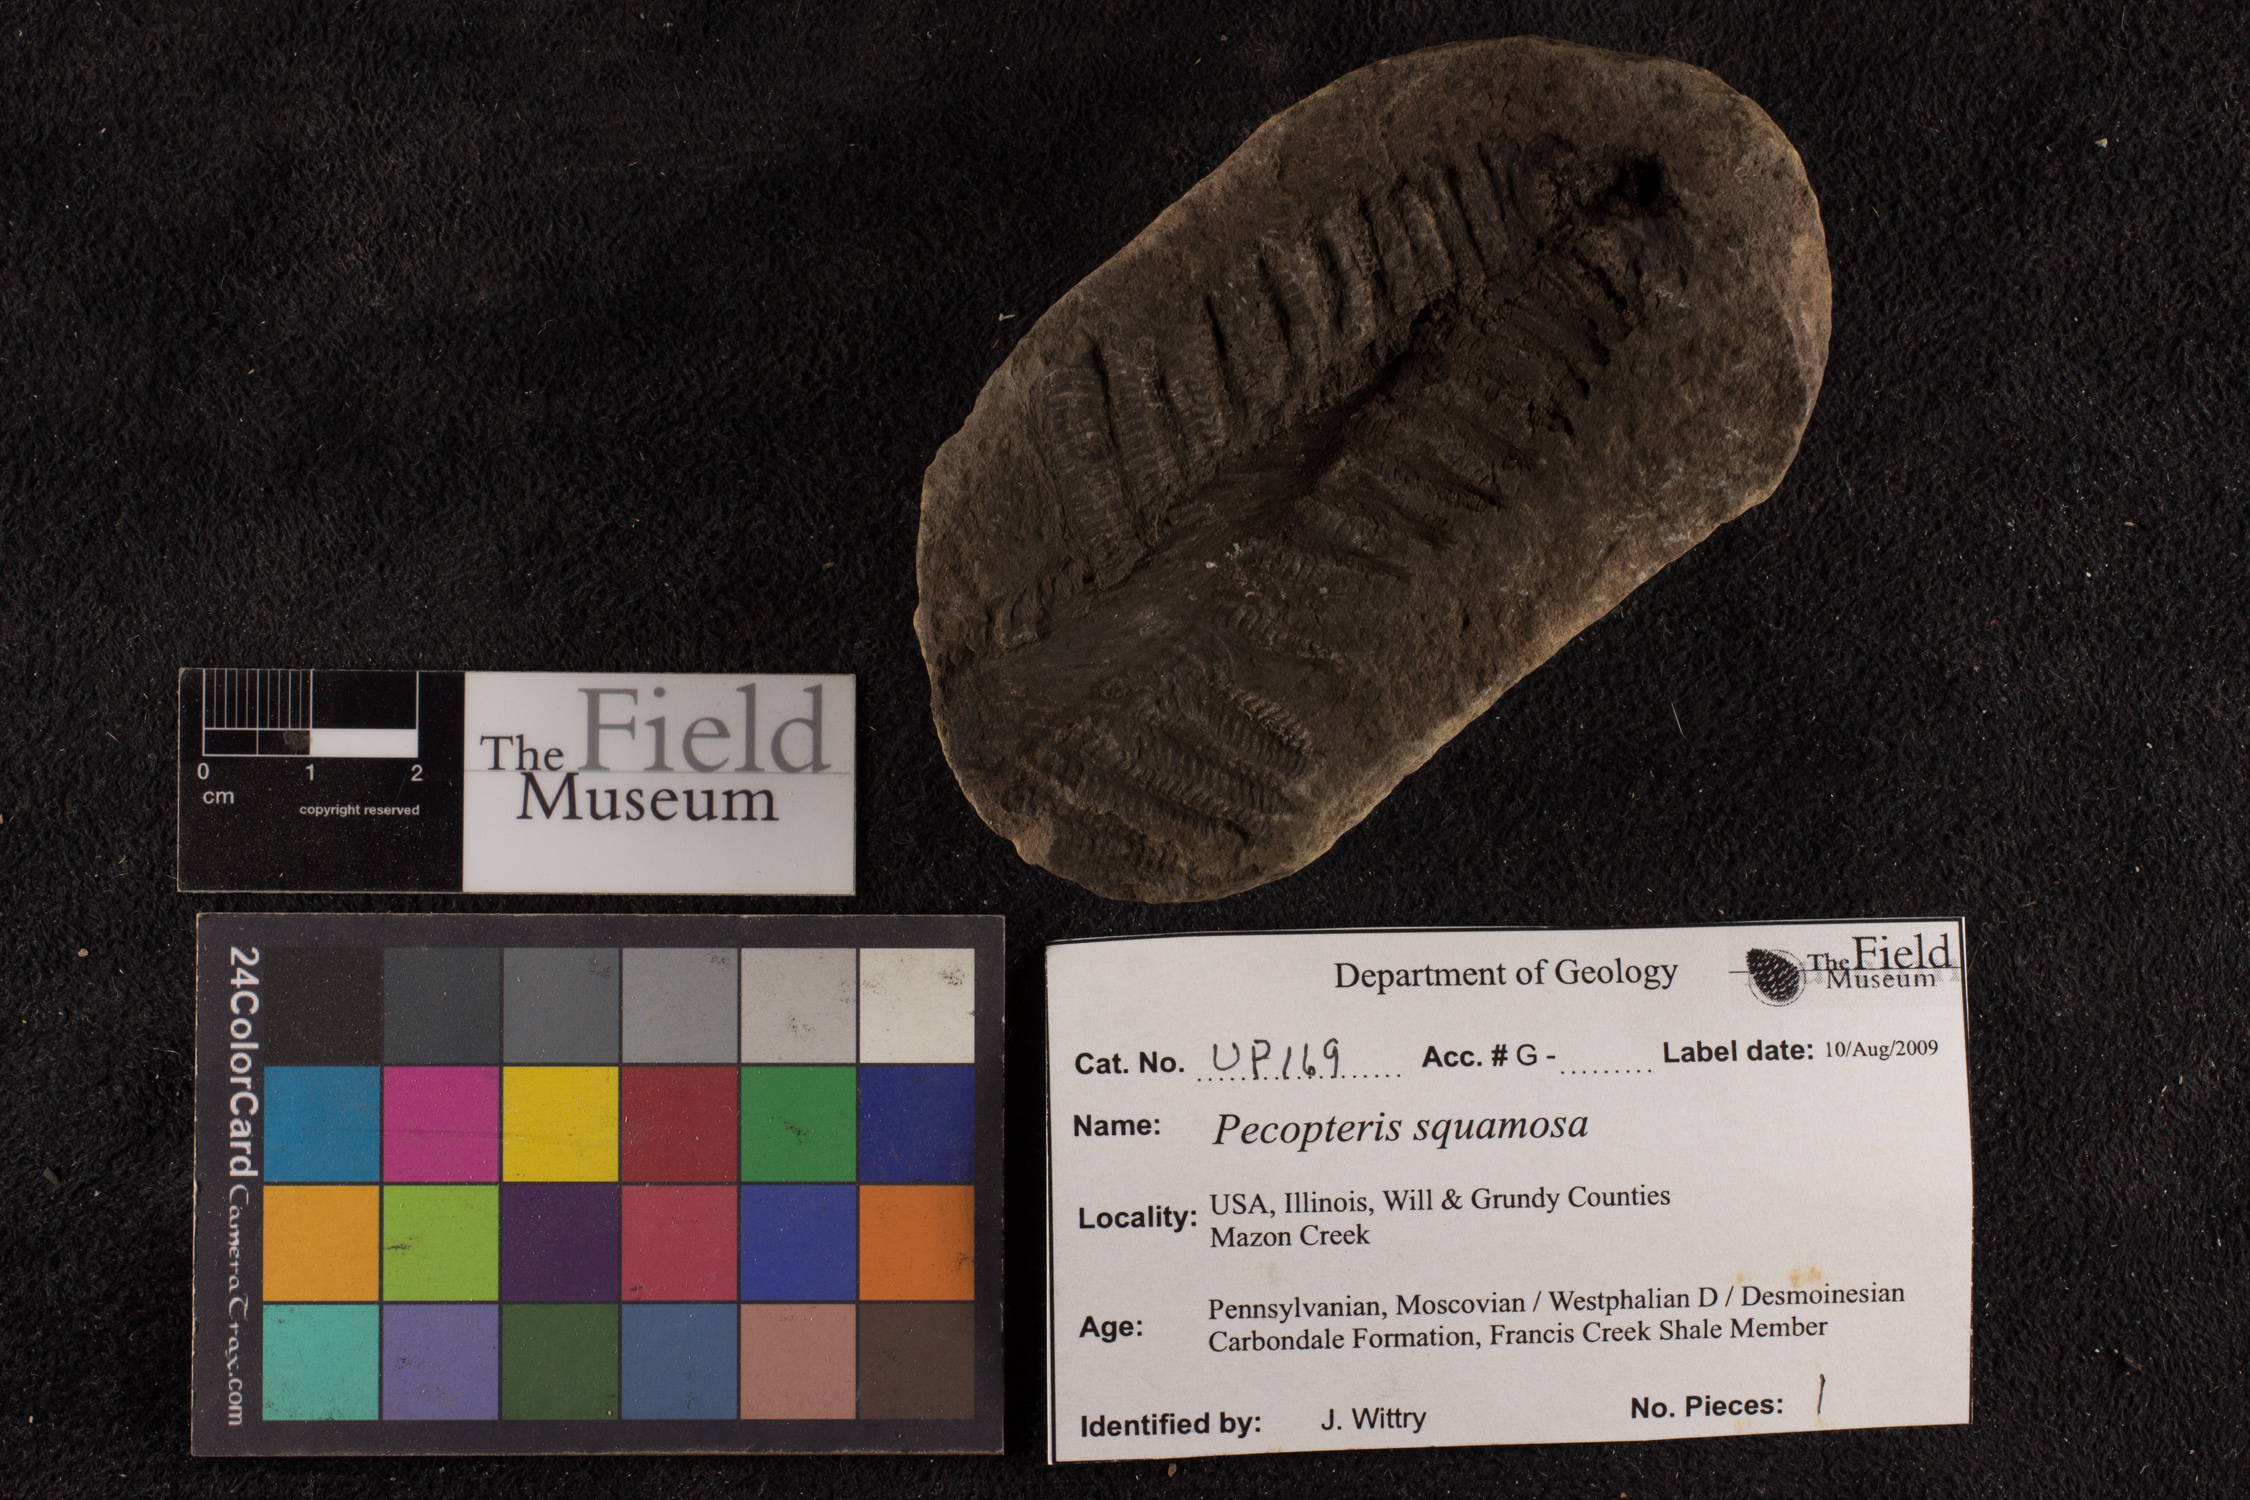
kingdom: Plantae
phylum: Tracheophyta
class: Polypodiopsida
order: Marattiales
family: Asterothecaceae
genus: Pecopteris
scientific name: Pecopteris
